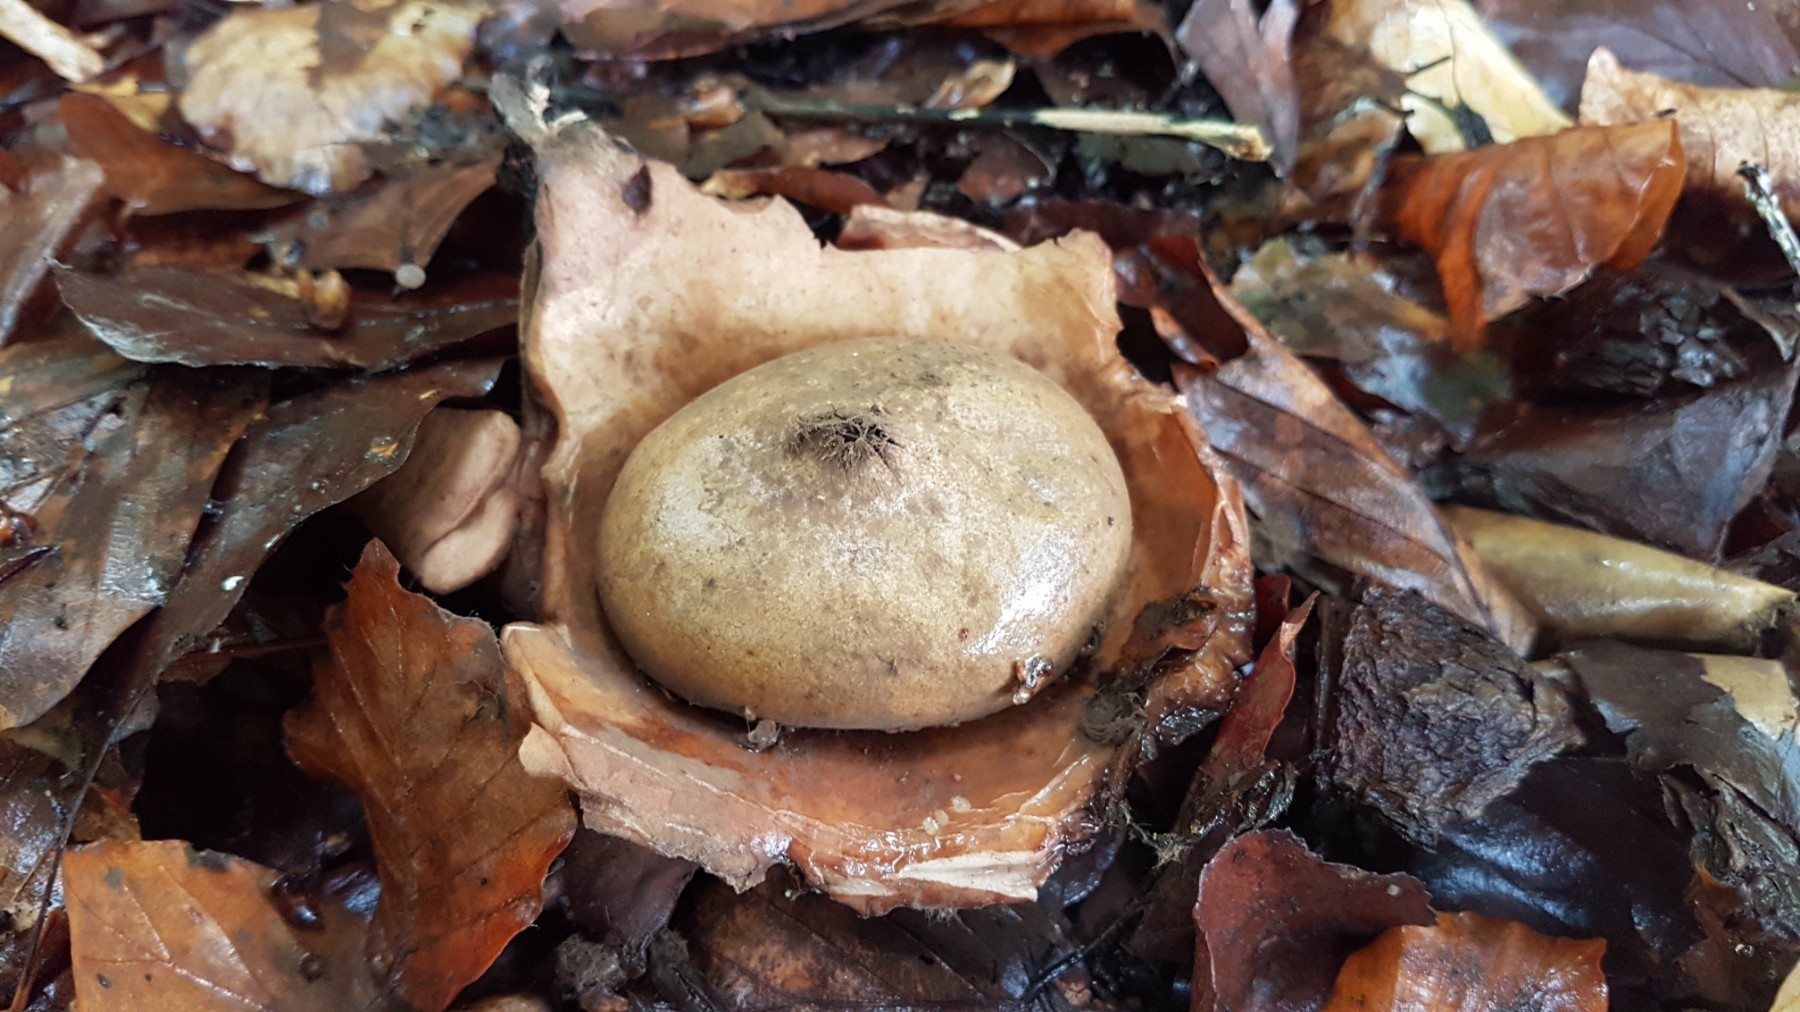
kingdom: Fungi
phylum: Basidiomycota
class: Agaricomycetes
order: Geastrales
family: Geastraceae
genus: Geastrum
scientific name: Geastrum michelianum
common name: kødet stjernebold
